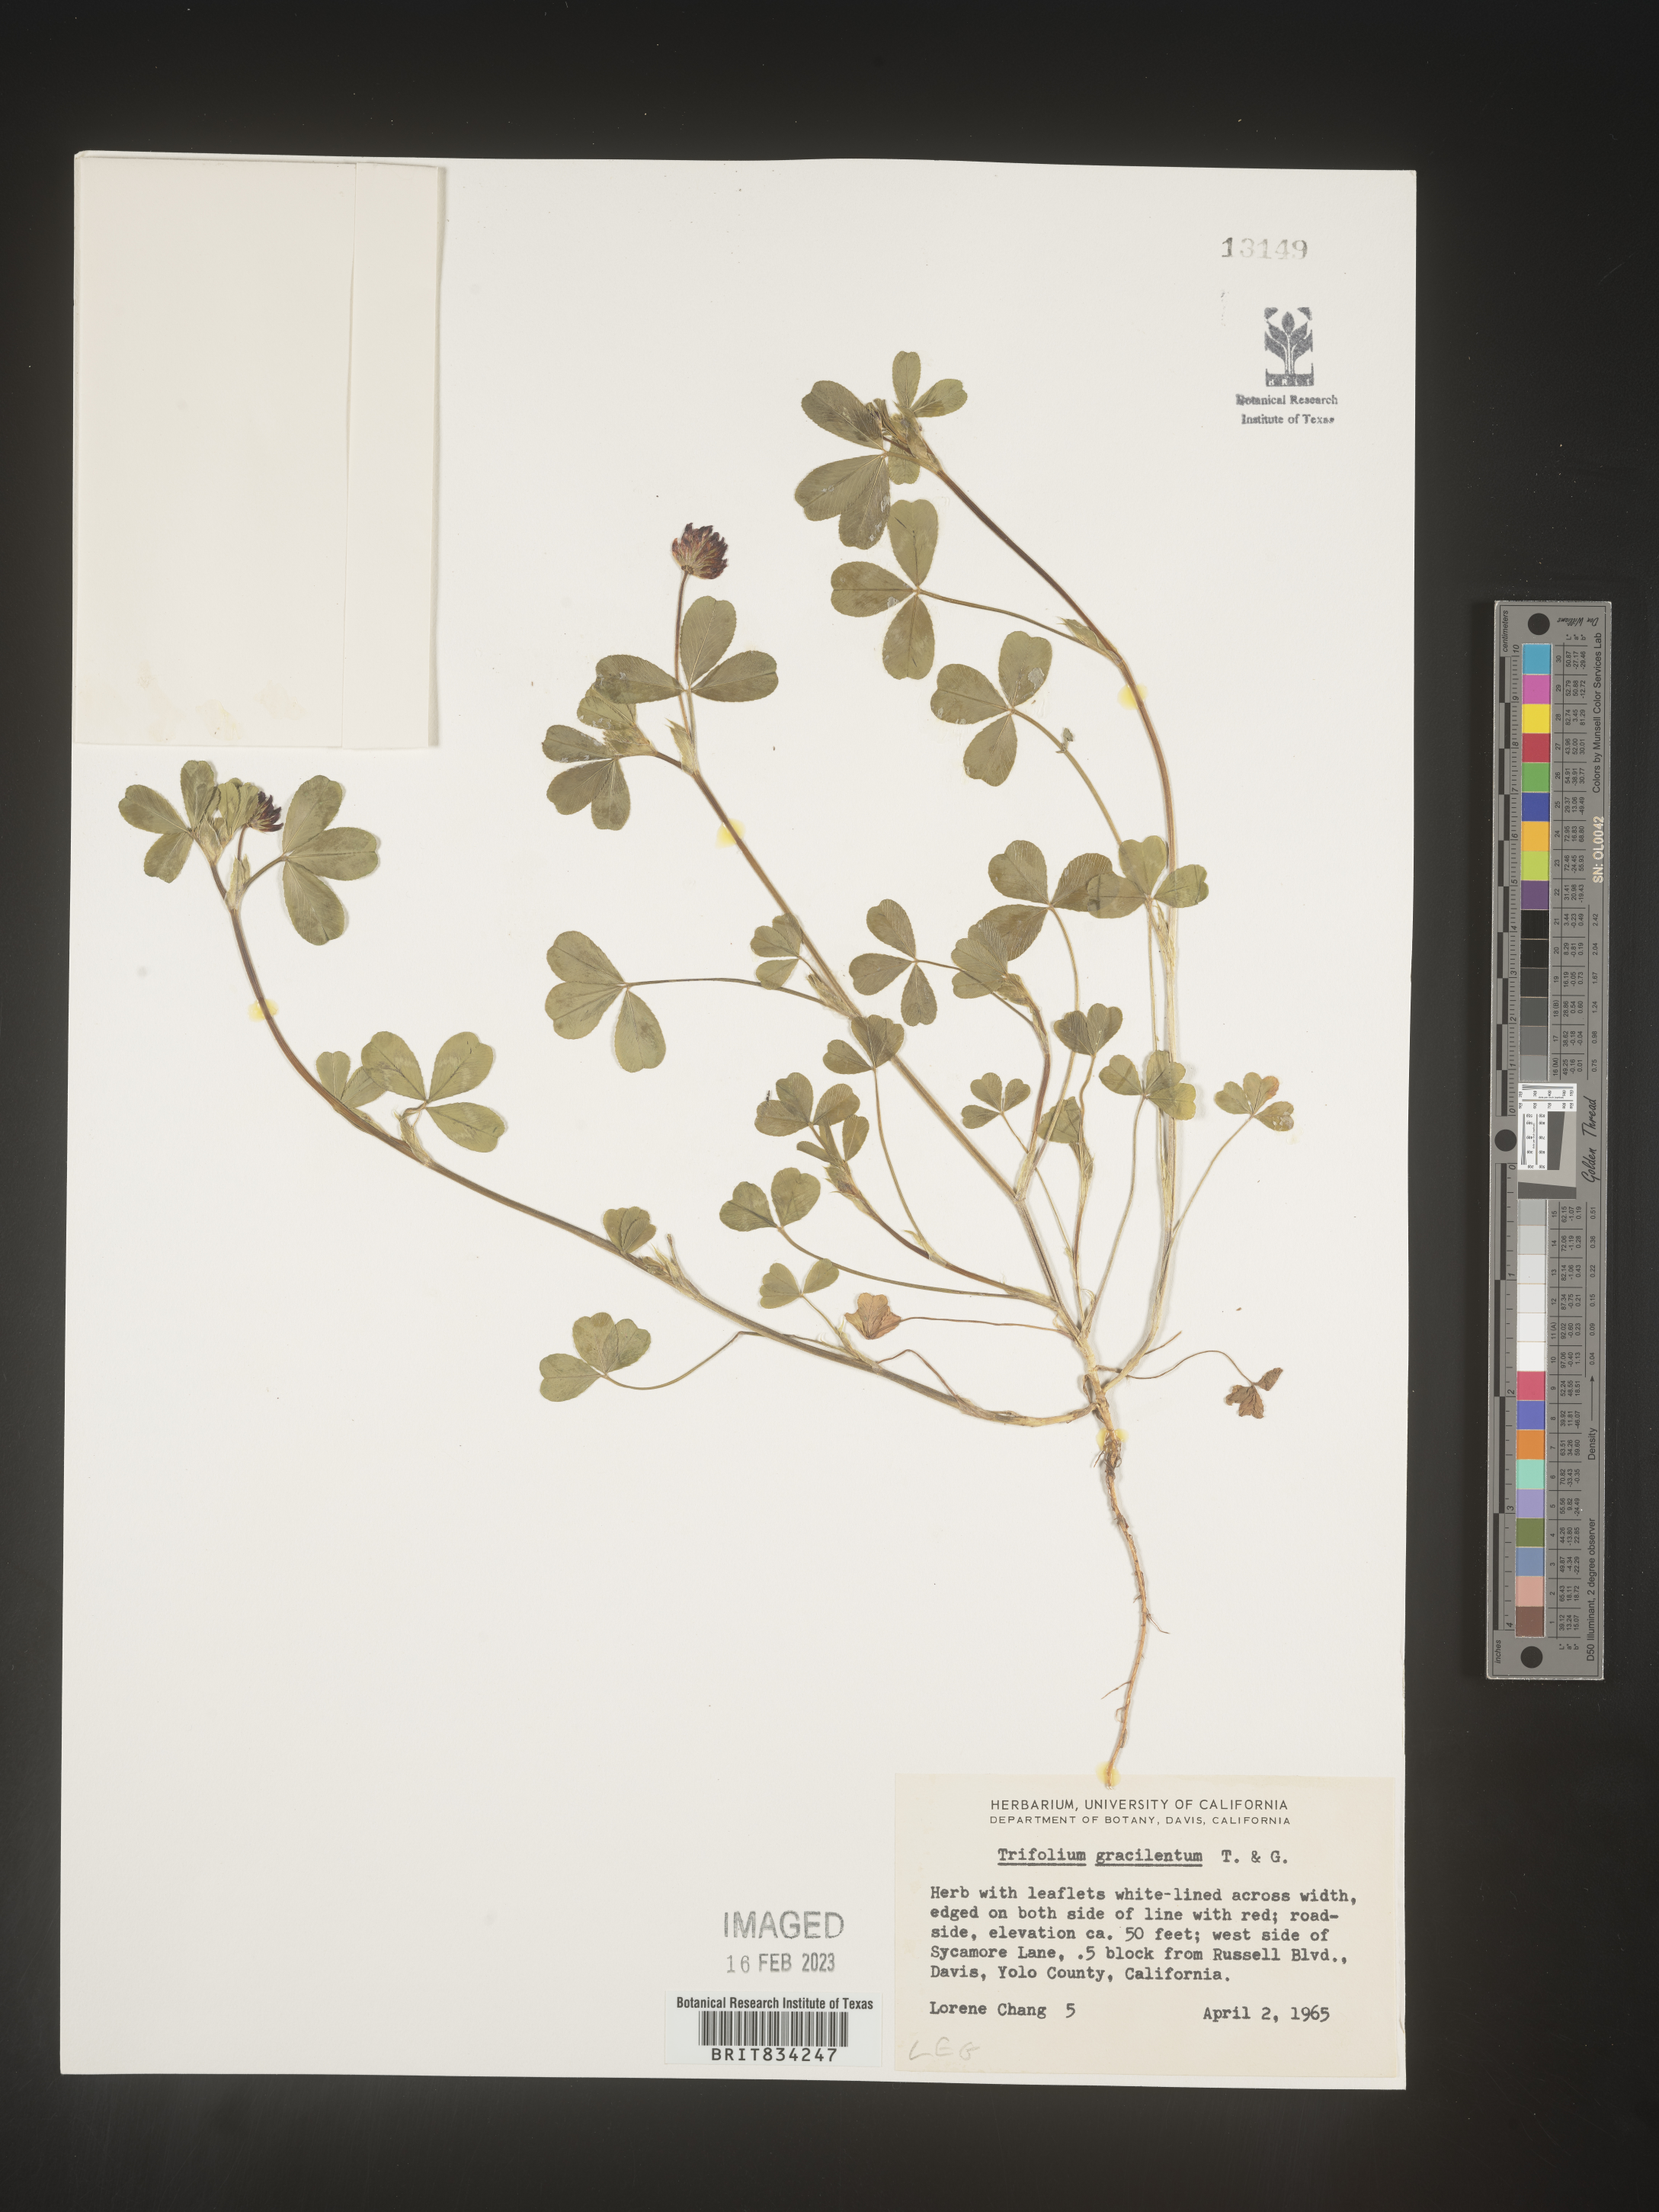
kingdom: Plantae
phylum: Tracheophyta
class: Magnoliopsida
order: Fabales
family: Fabaceae
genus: Trifolium
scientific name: Trifolium
